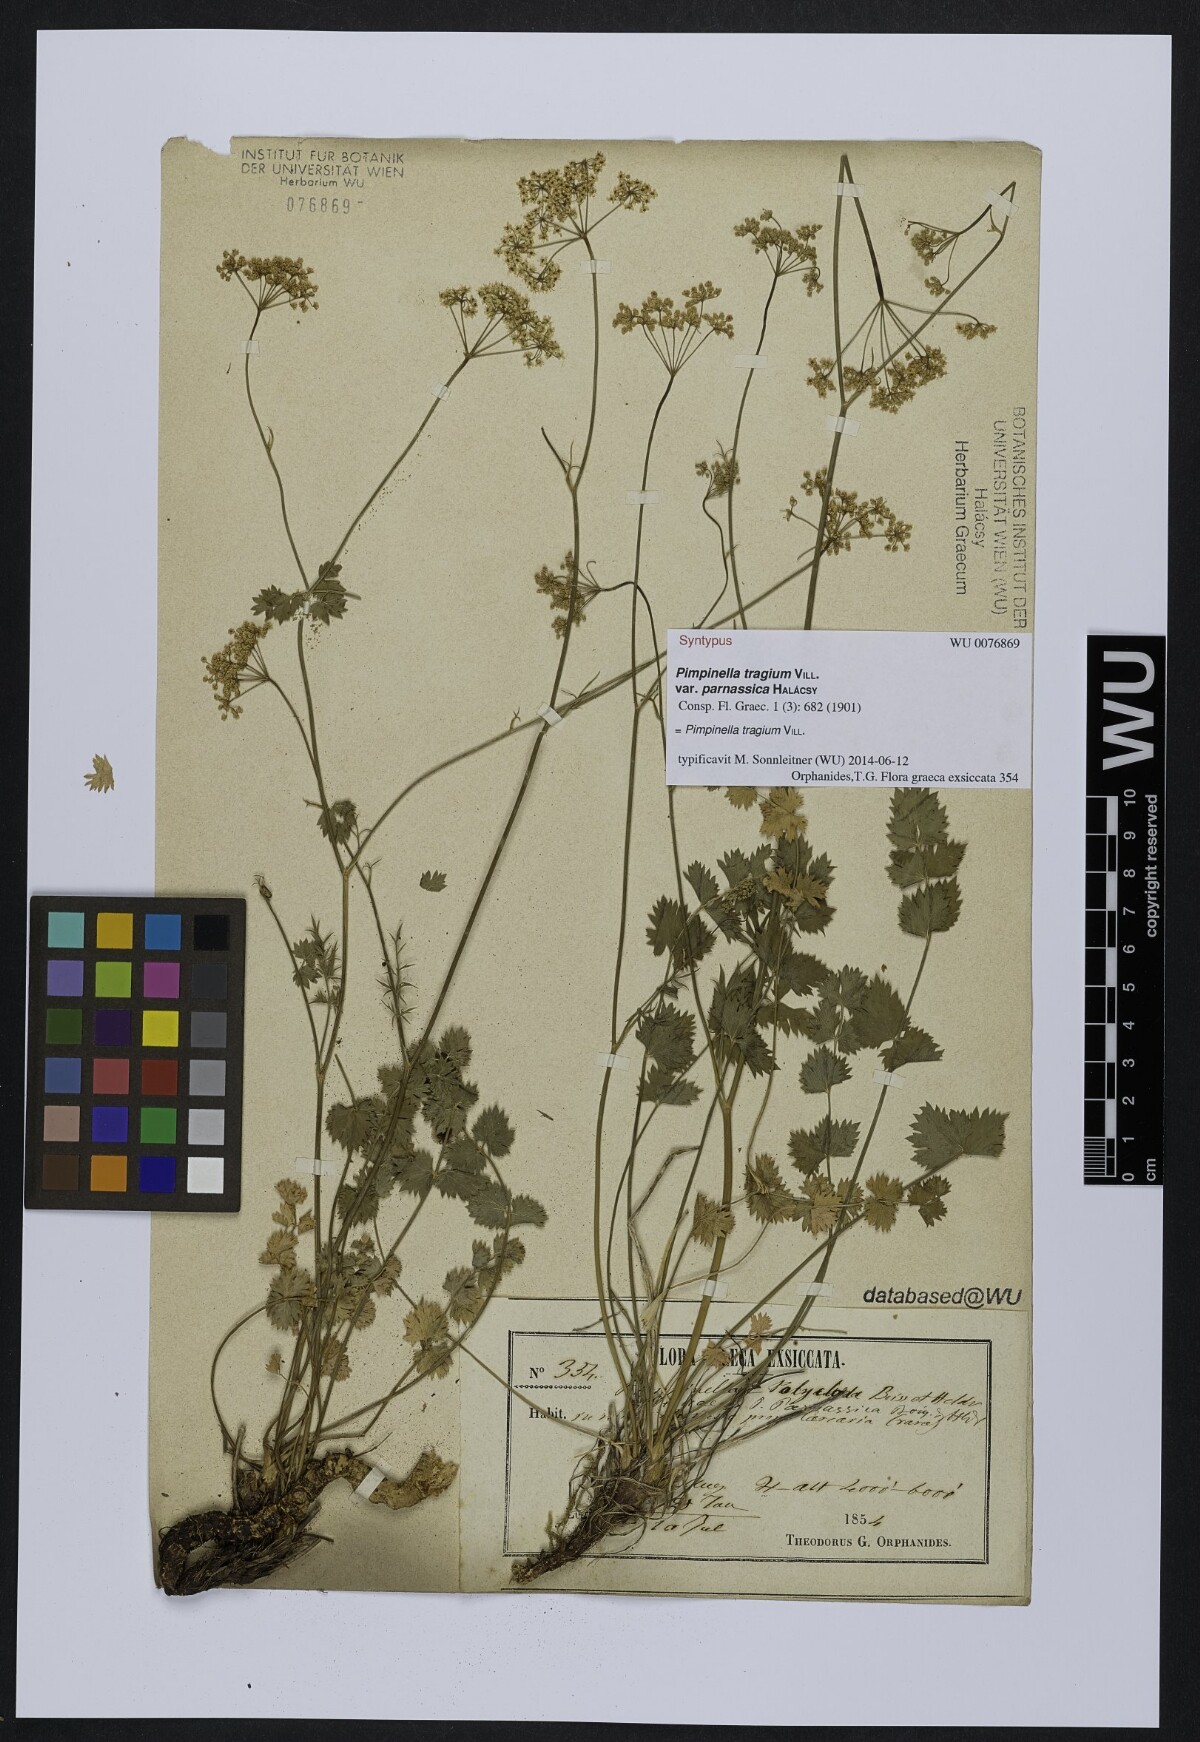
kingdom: Plantae
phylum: Tracheophyta
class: Magnoliopsida
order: Apiales
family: Apiaceae
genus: Pimpinella
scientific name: Pimpinella tragium
